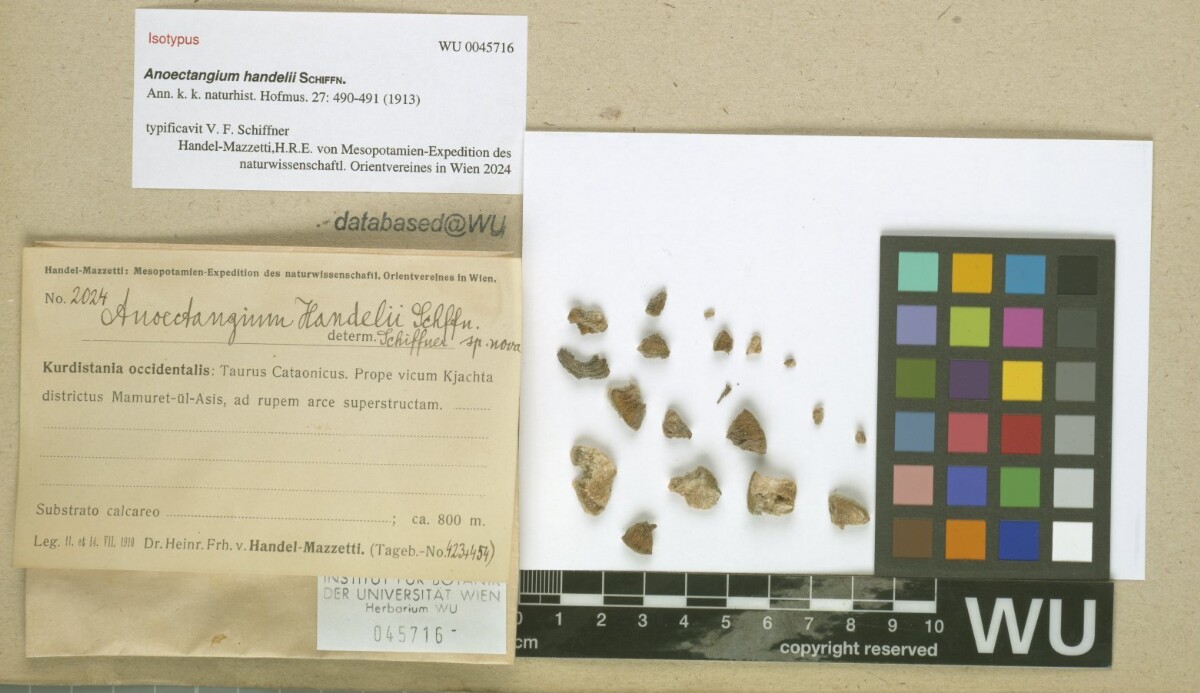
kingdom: Plantae
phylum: Bryophyta
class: Bryopsida
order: Pottiales
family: Pottiaceae
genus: Molendoa
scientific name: Molendoa handelii
